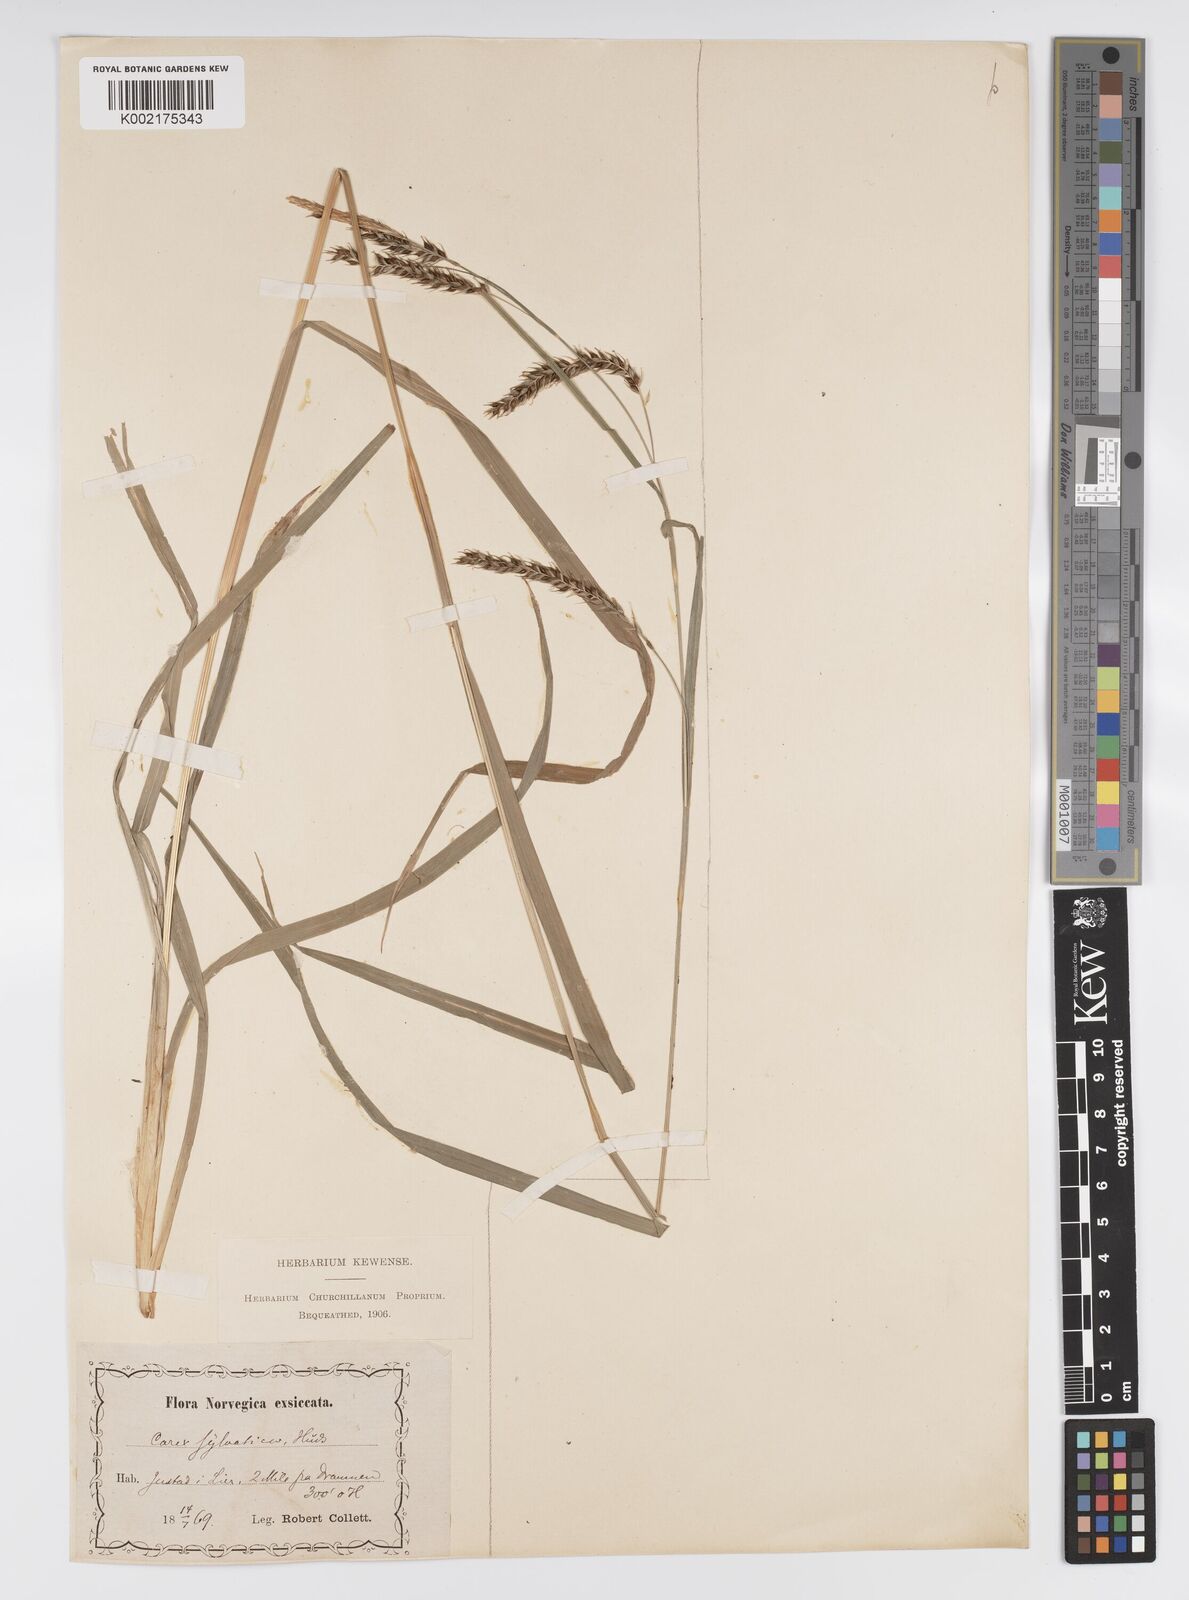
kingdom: Plantae
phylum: Tracheophyta
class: Liliopsida
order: Poales
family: Cyperaceae
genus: Carex
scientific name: Carex sylvatica
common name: Wood-sedge
